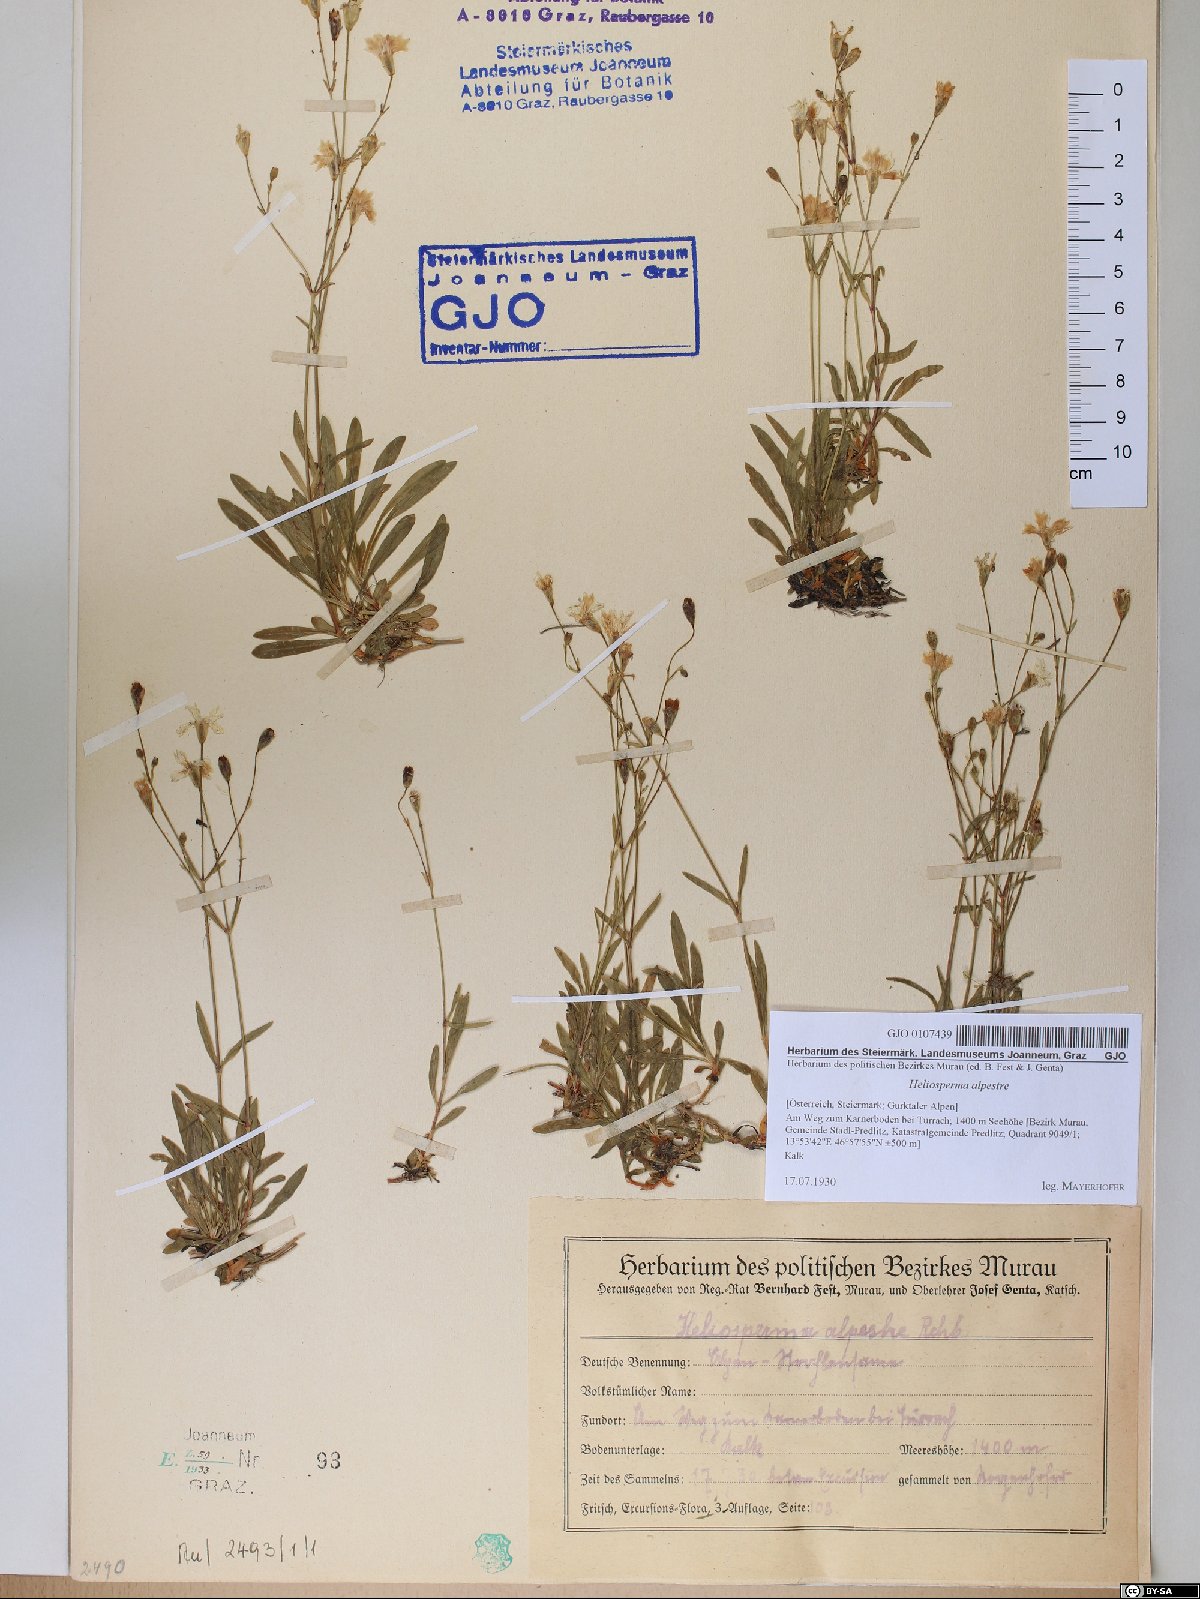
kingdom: Plantae
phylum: Tracheophyta
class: Magnoliopsida
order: Caryophyllales
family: Caryophyllaceae
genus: Heliosperma
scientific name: Heliosperma alpestre
